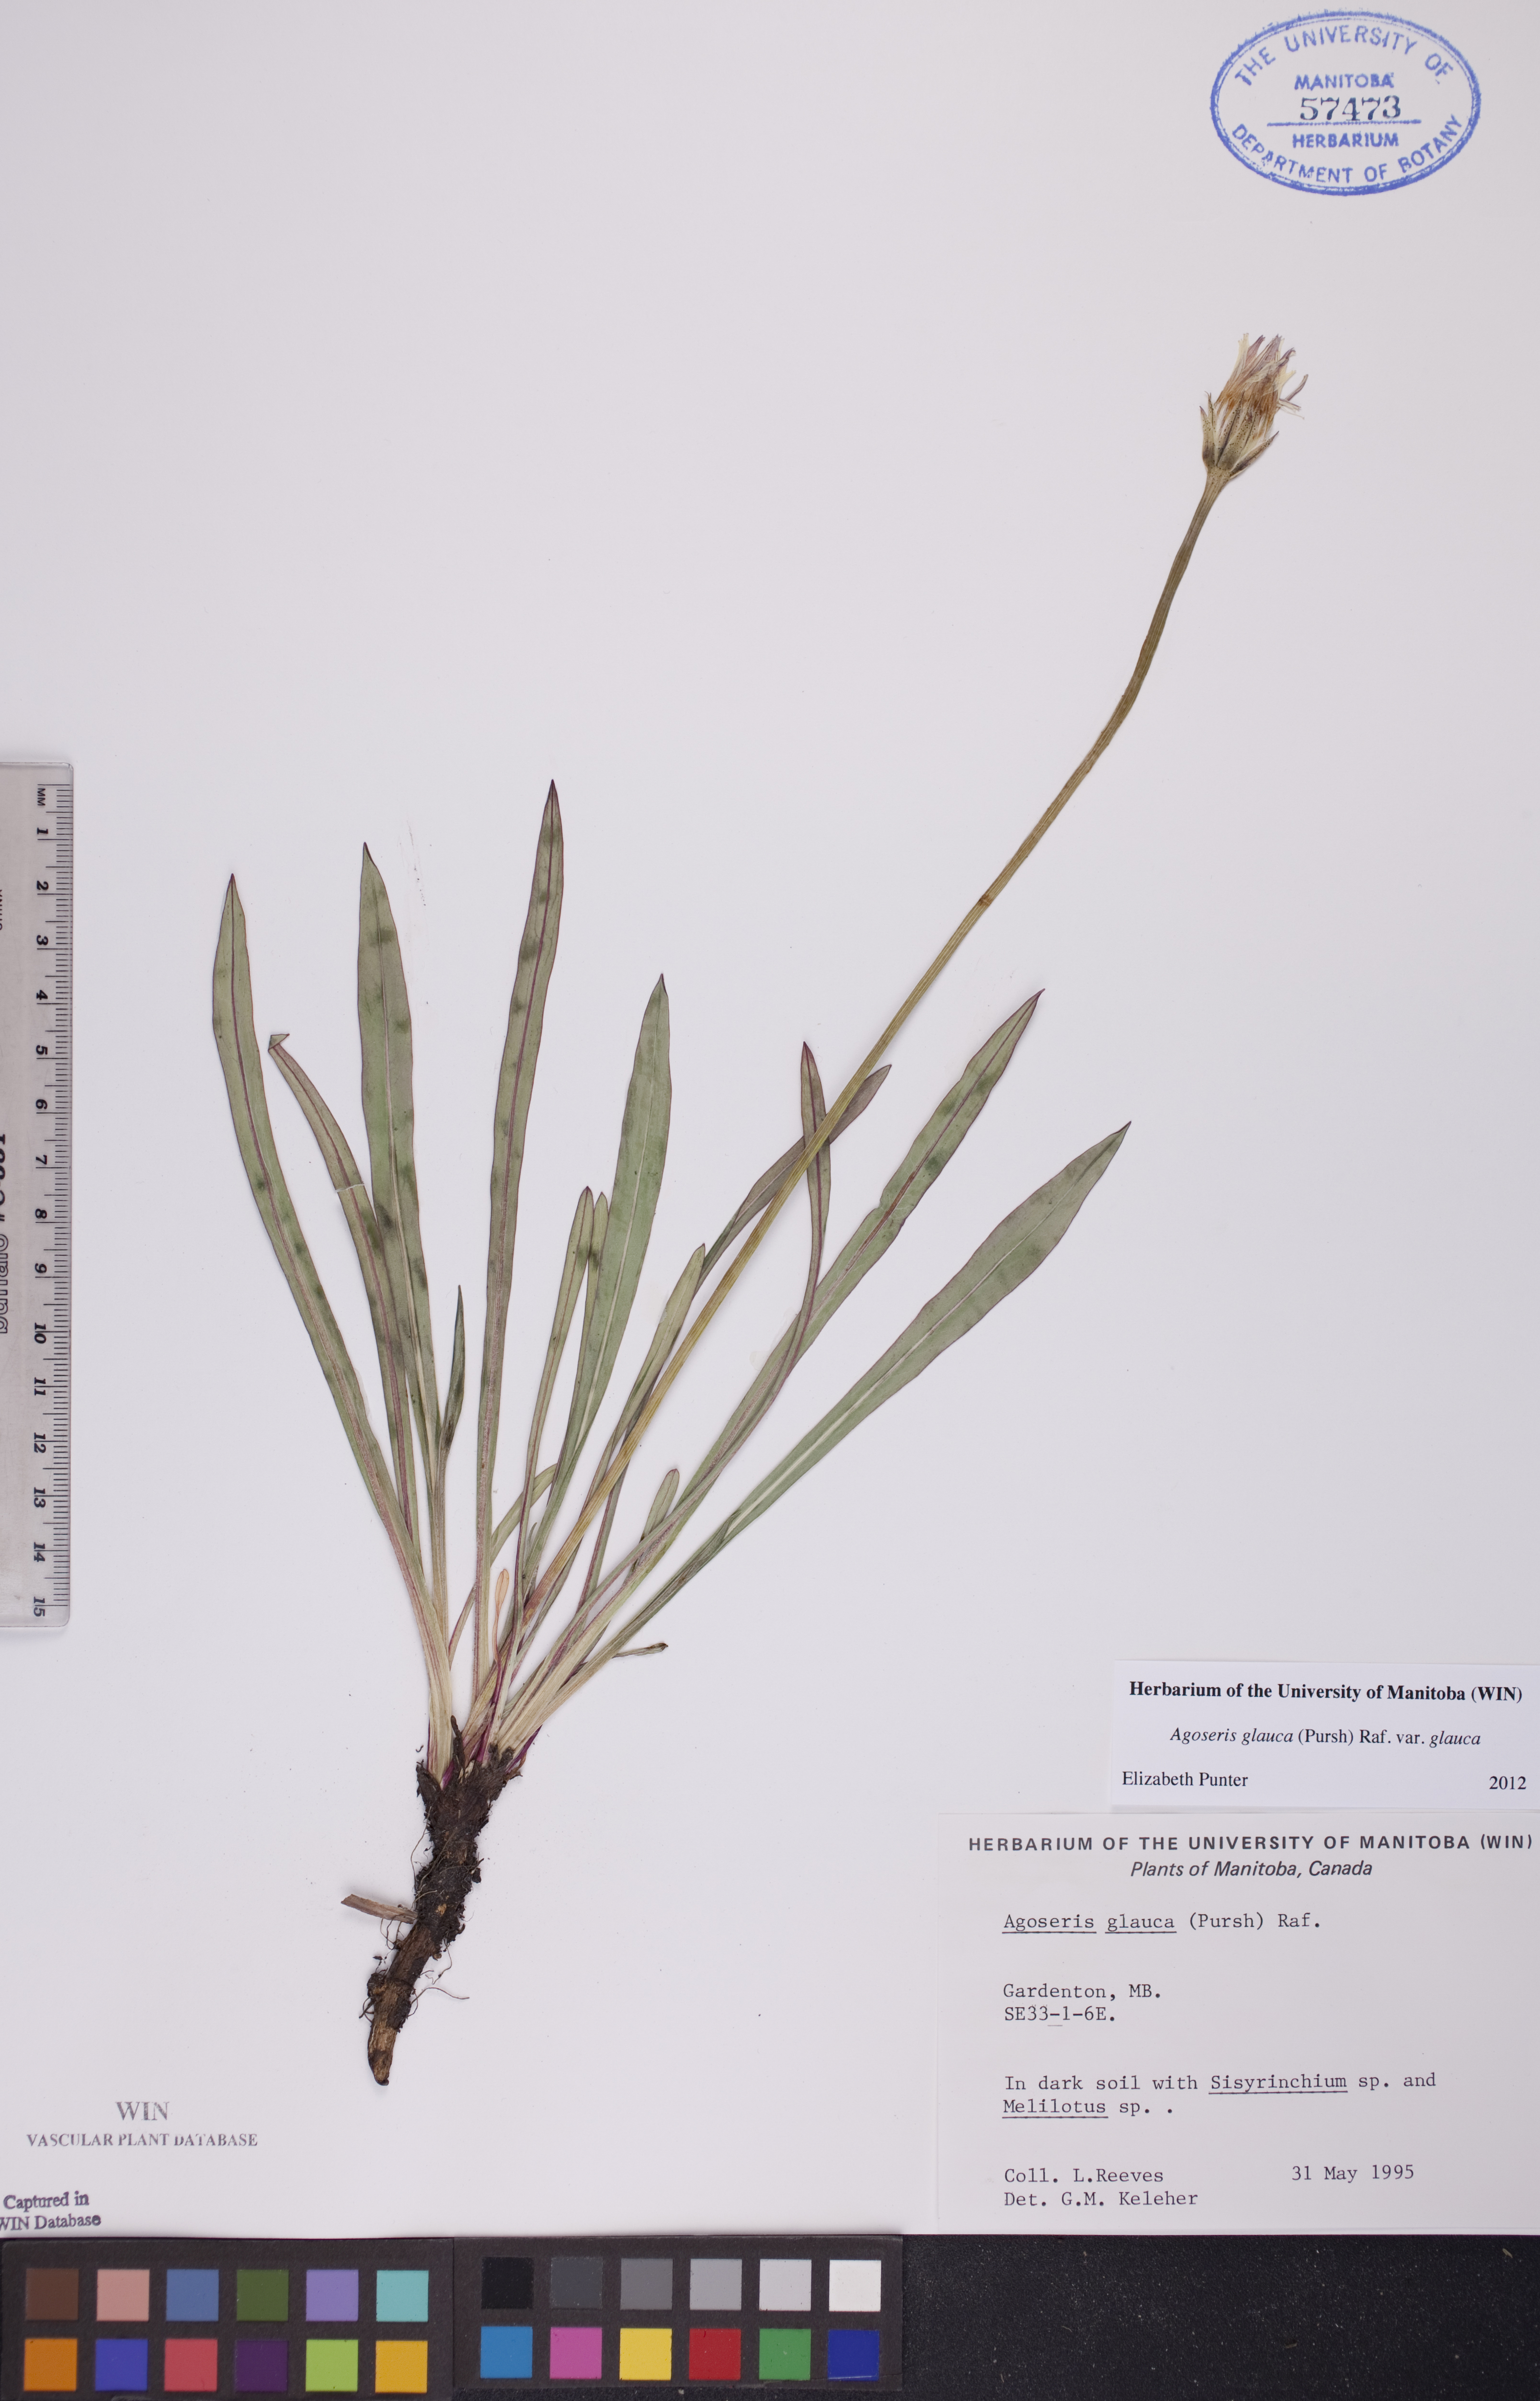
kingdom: Plantae
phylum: Tracheophyta
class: Magnoliopsida
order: Asterales
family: Asteraceae
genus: Agoseris
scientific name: Agoseris glauca
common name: Prairie agoseris
